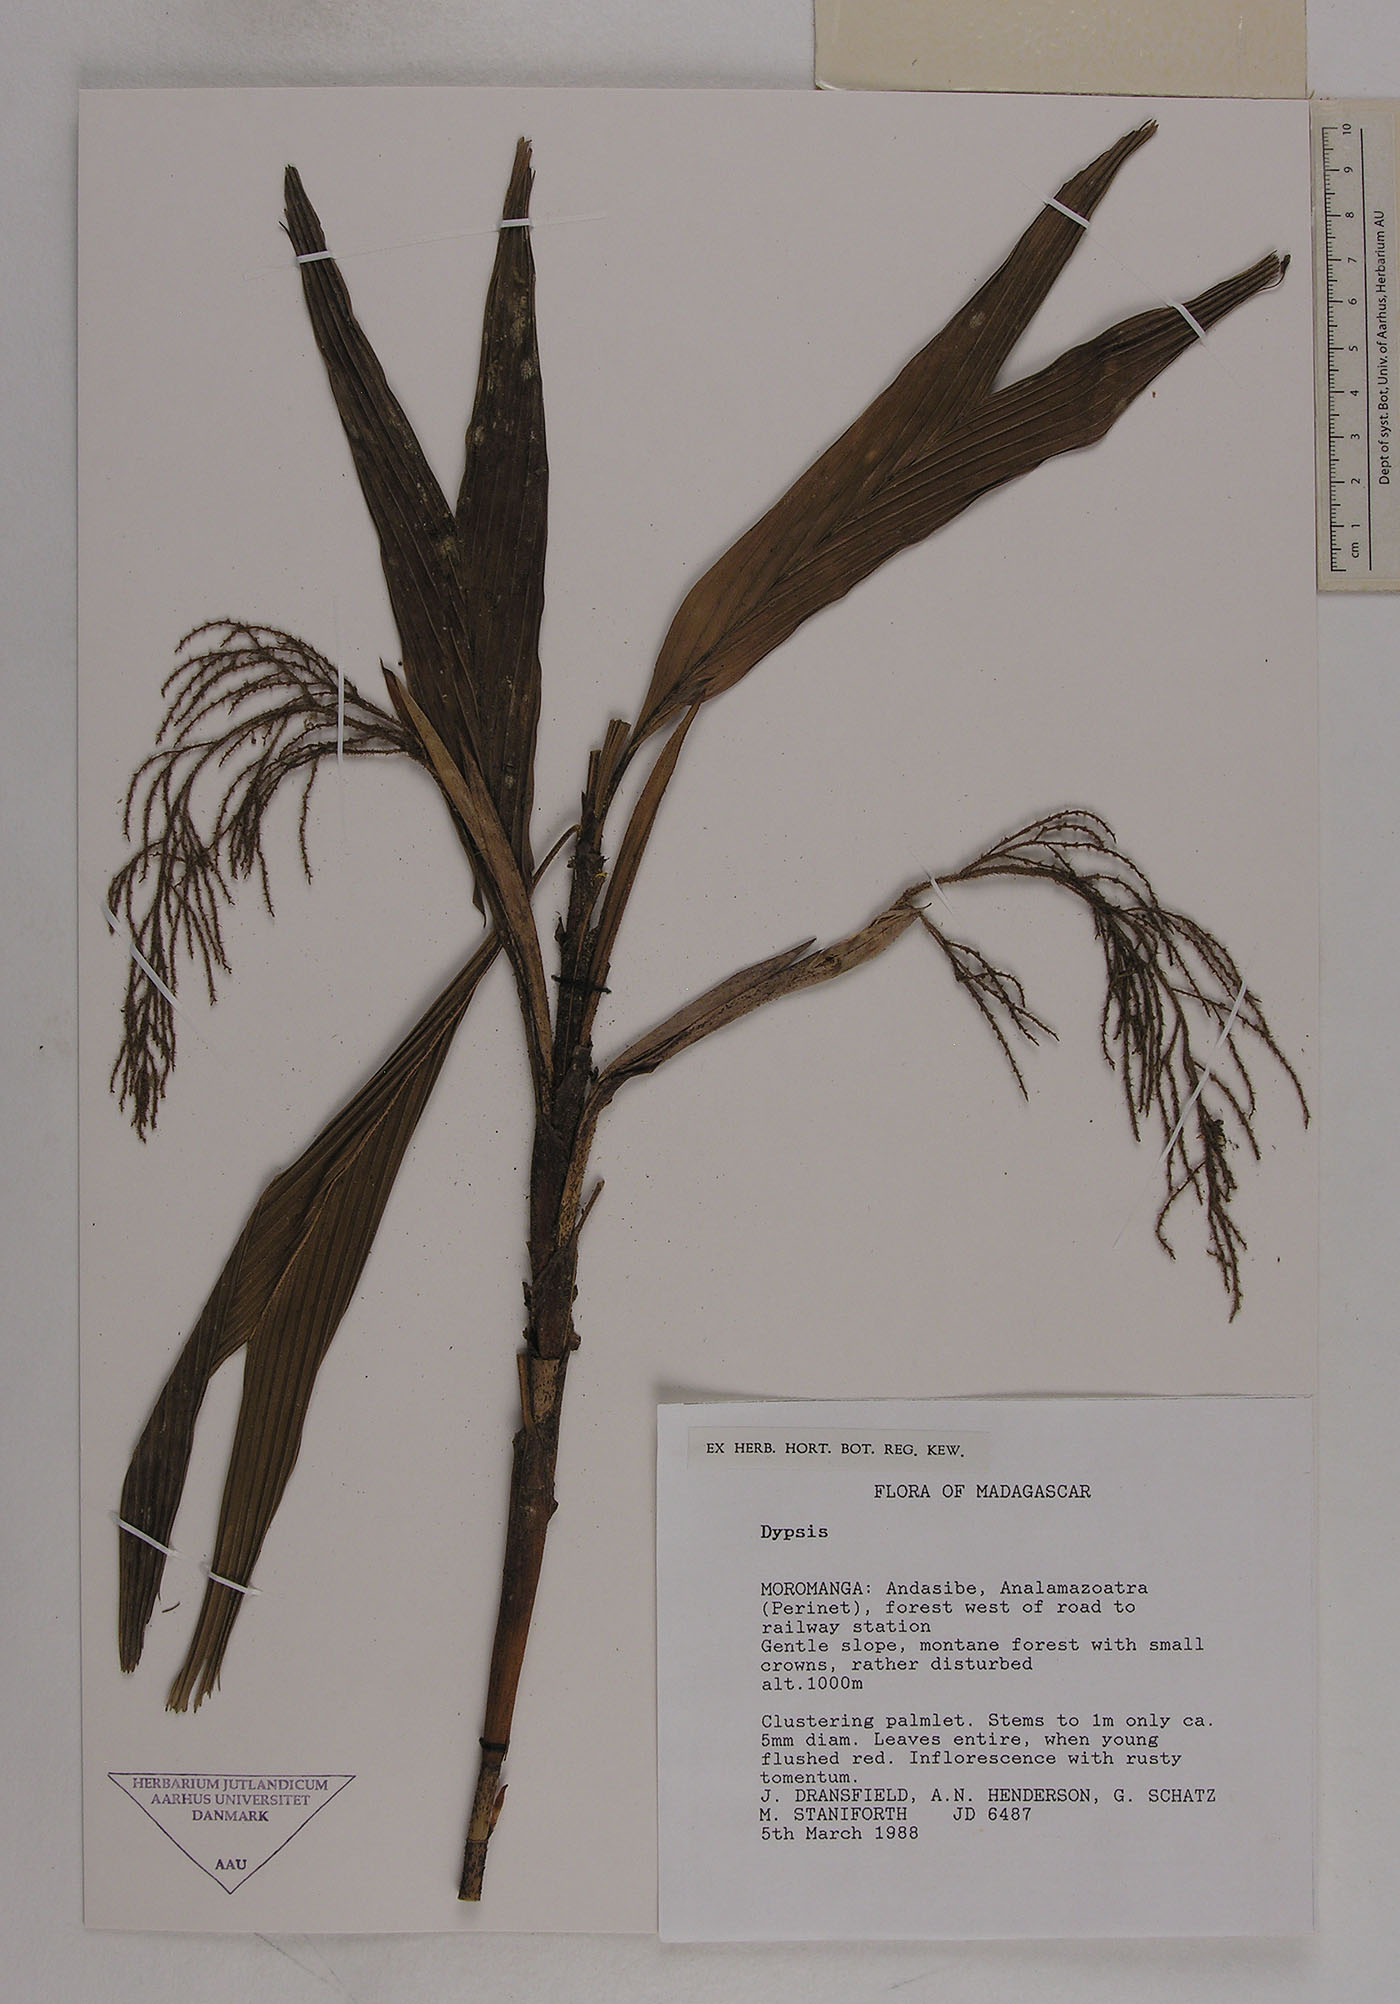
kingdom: Plantae
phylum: Tracheophyta
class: Liliopsida
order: Arecales
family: Arecaceae
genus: Dypsis
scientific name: Dypsis
